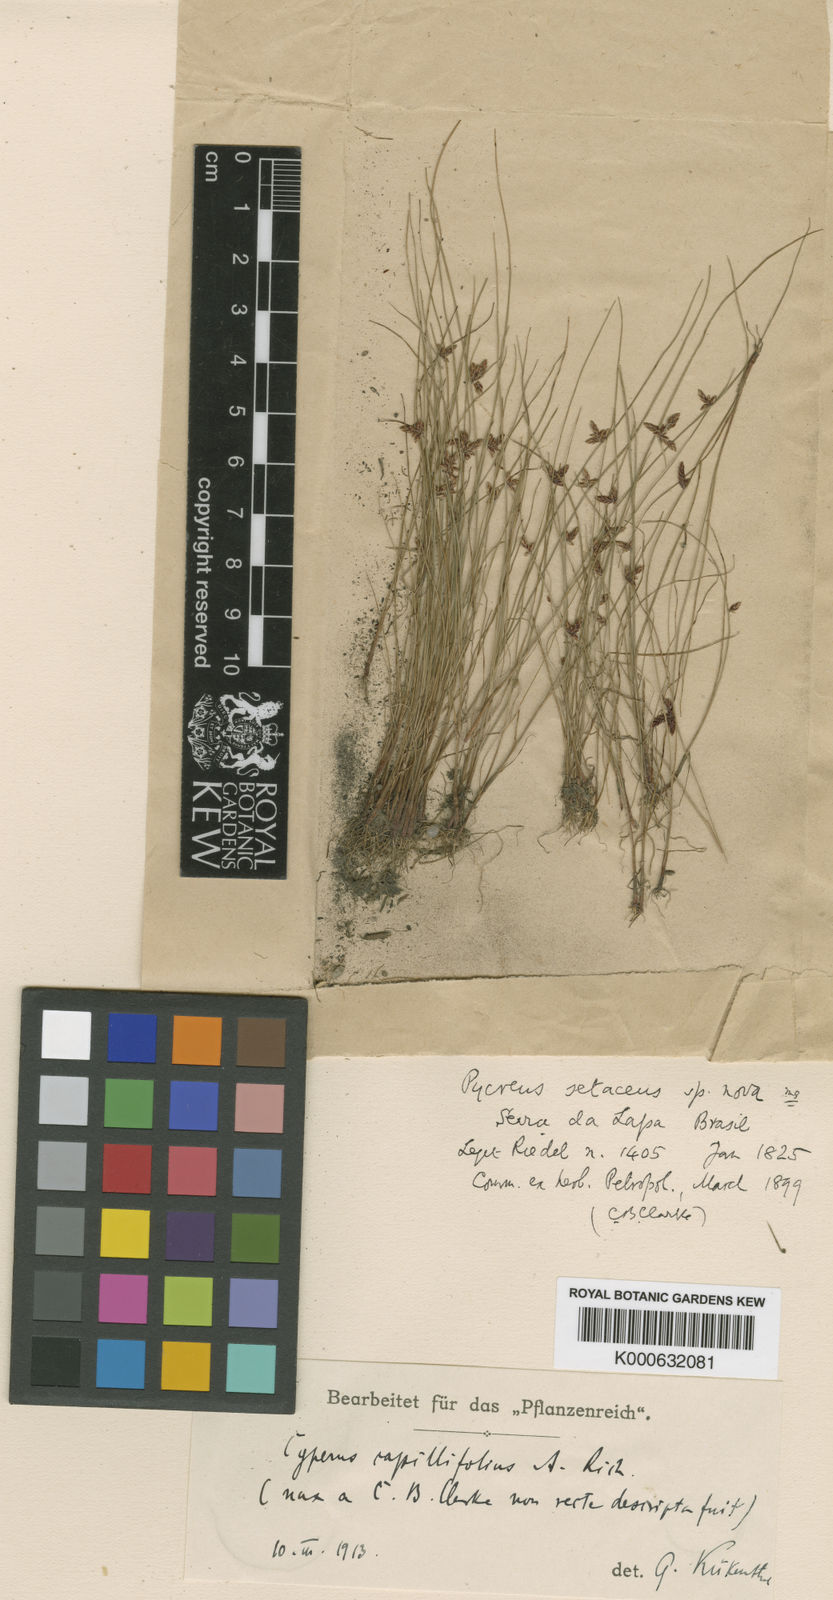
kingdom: Plantae
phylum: Tracheophyta
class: Liliopsida
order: Poales
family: Cyperaceae
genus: Cyperus
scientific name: Cyperus capillifolius
